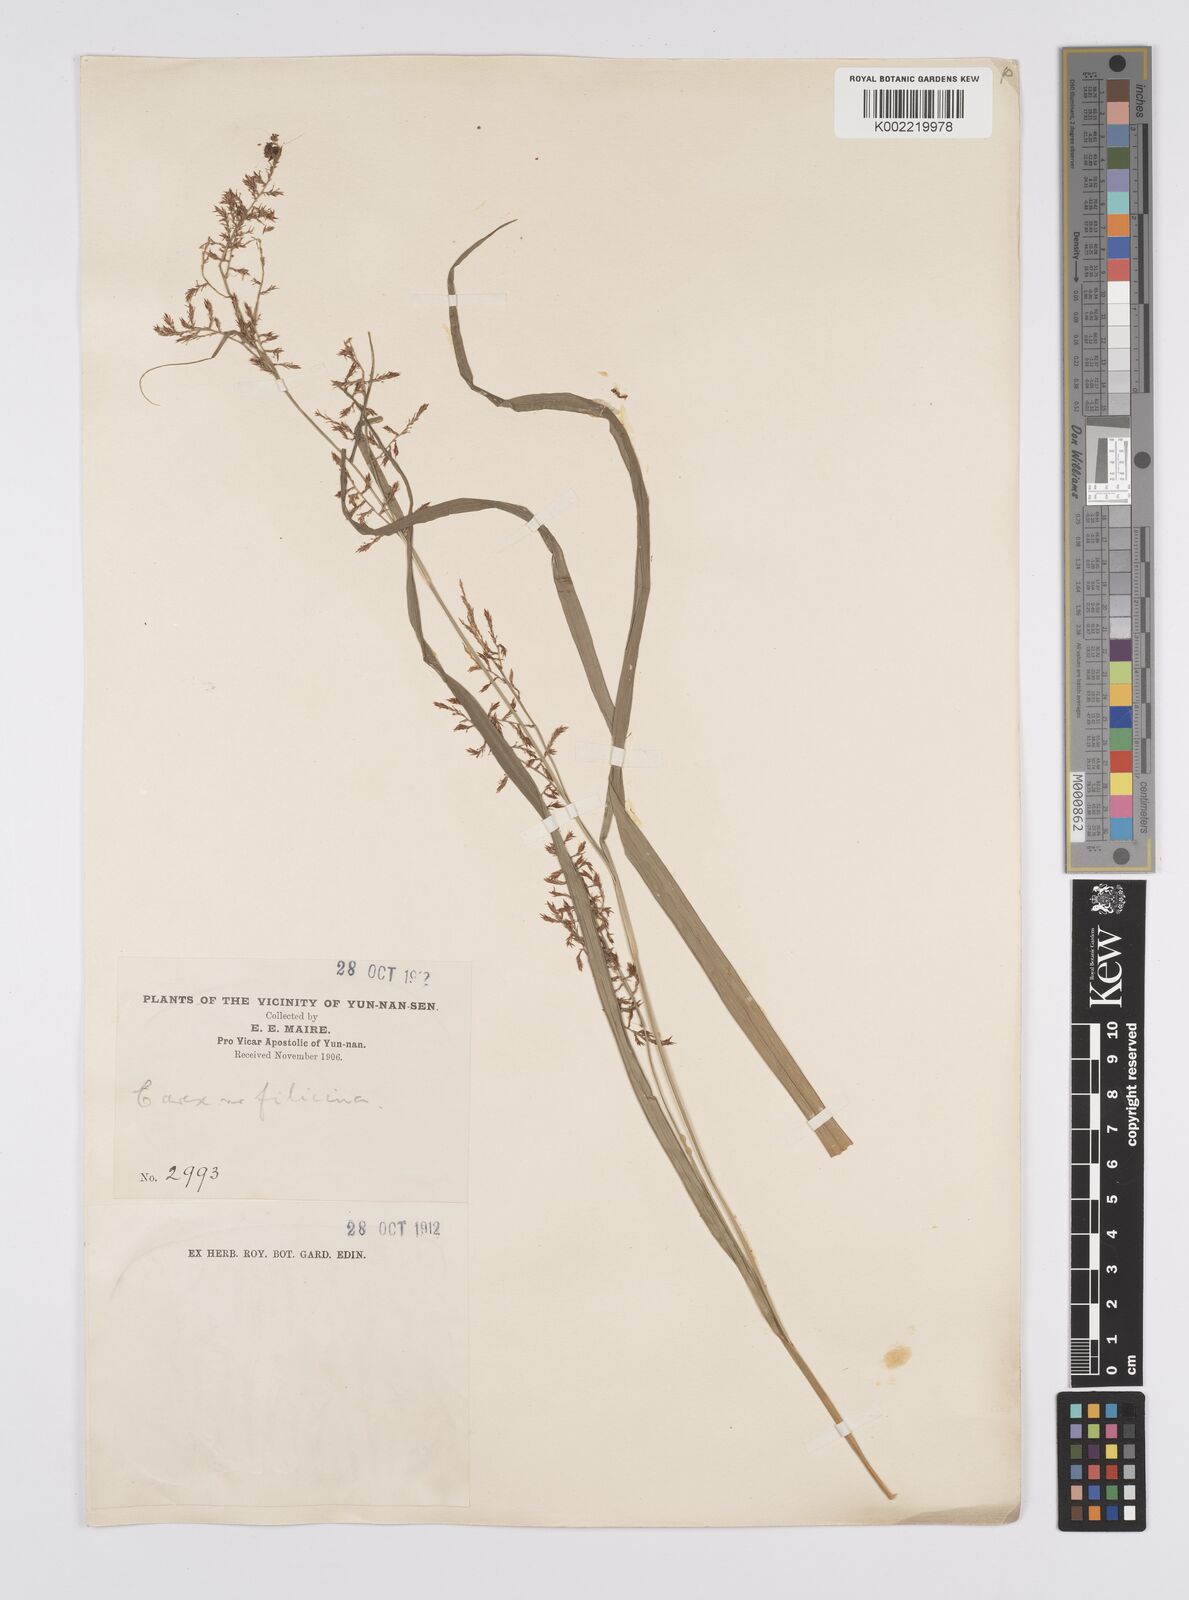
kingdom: Plantae
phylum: Tracheophyta
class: Liliopsida
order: Poales
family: Cyperaceae
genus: Carex
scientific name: Carex filicina
